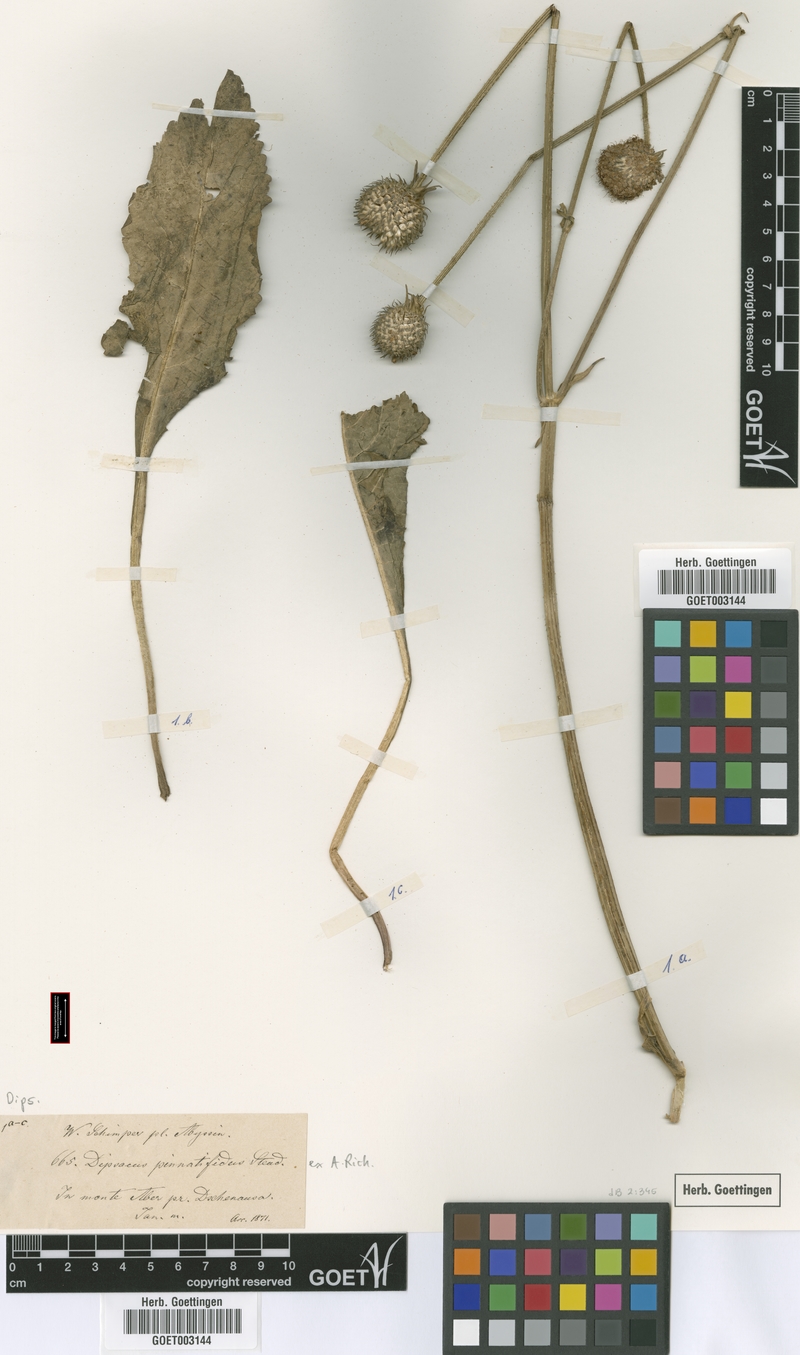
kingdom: Plantae
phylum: Tracheophyta
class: Magnoliopsida
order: Dipsacales
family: Caprifoliaceae
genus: Dipsacus
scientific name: Dipsacus pinnatifidus
